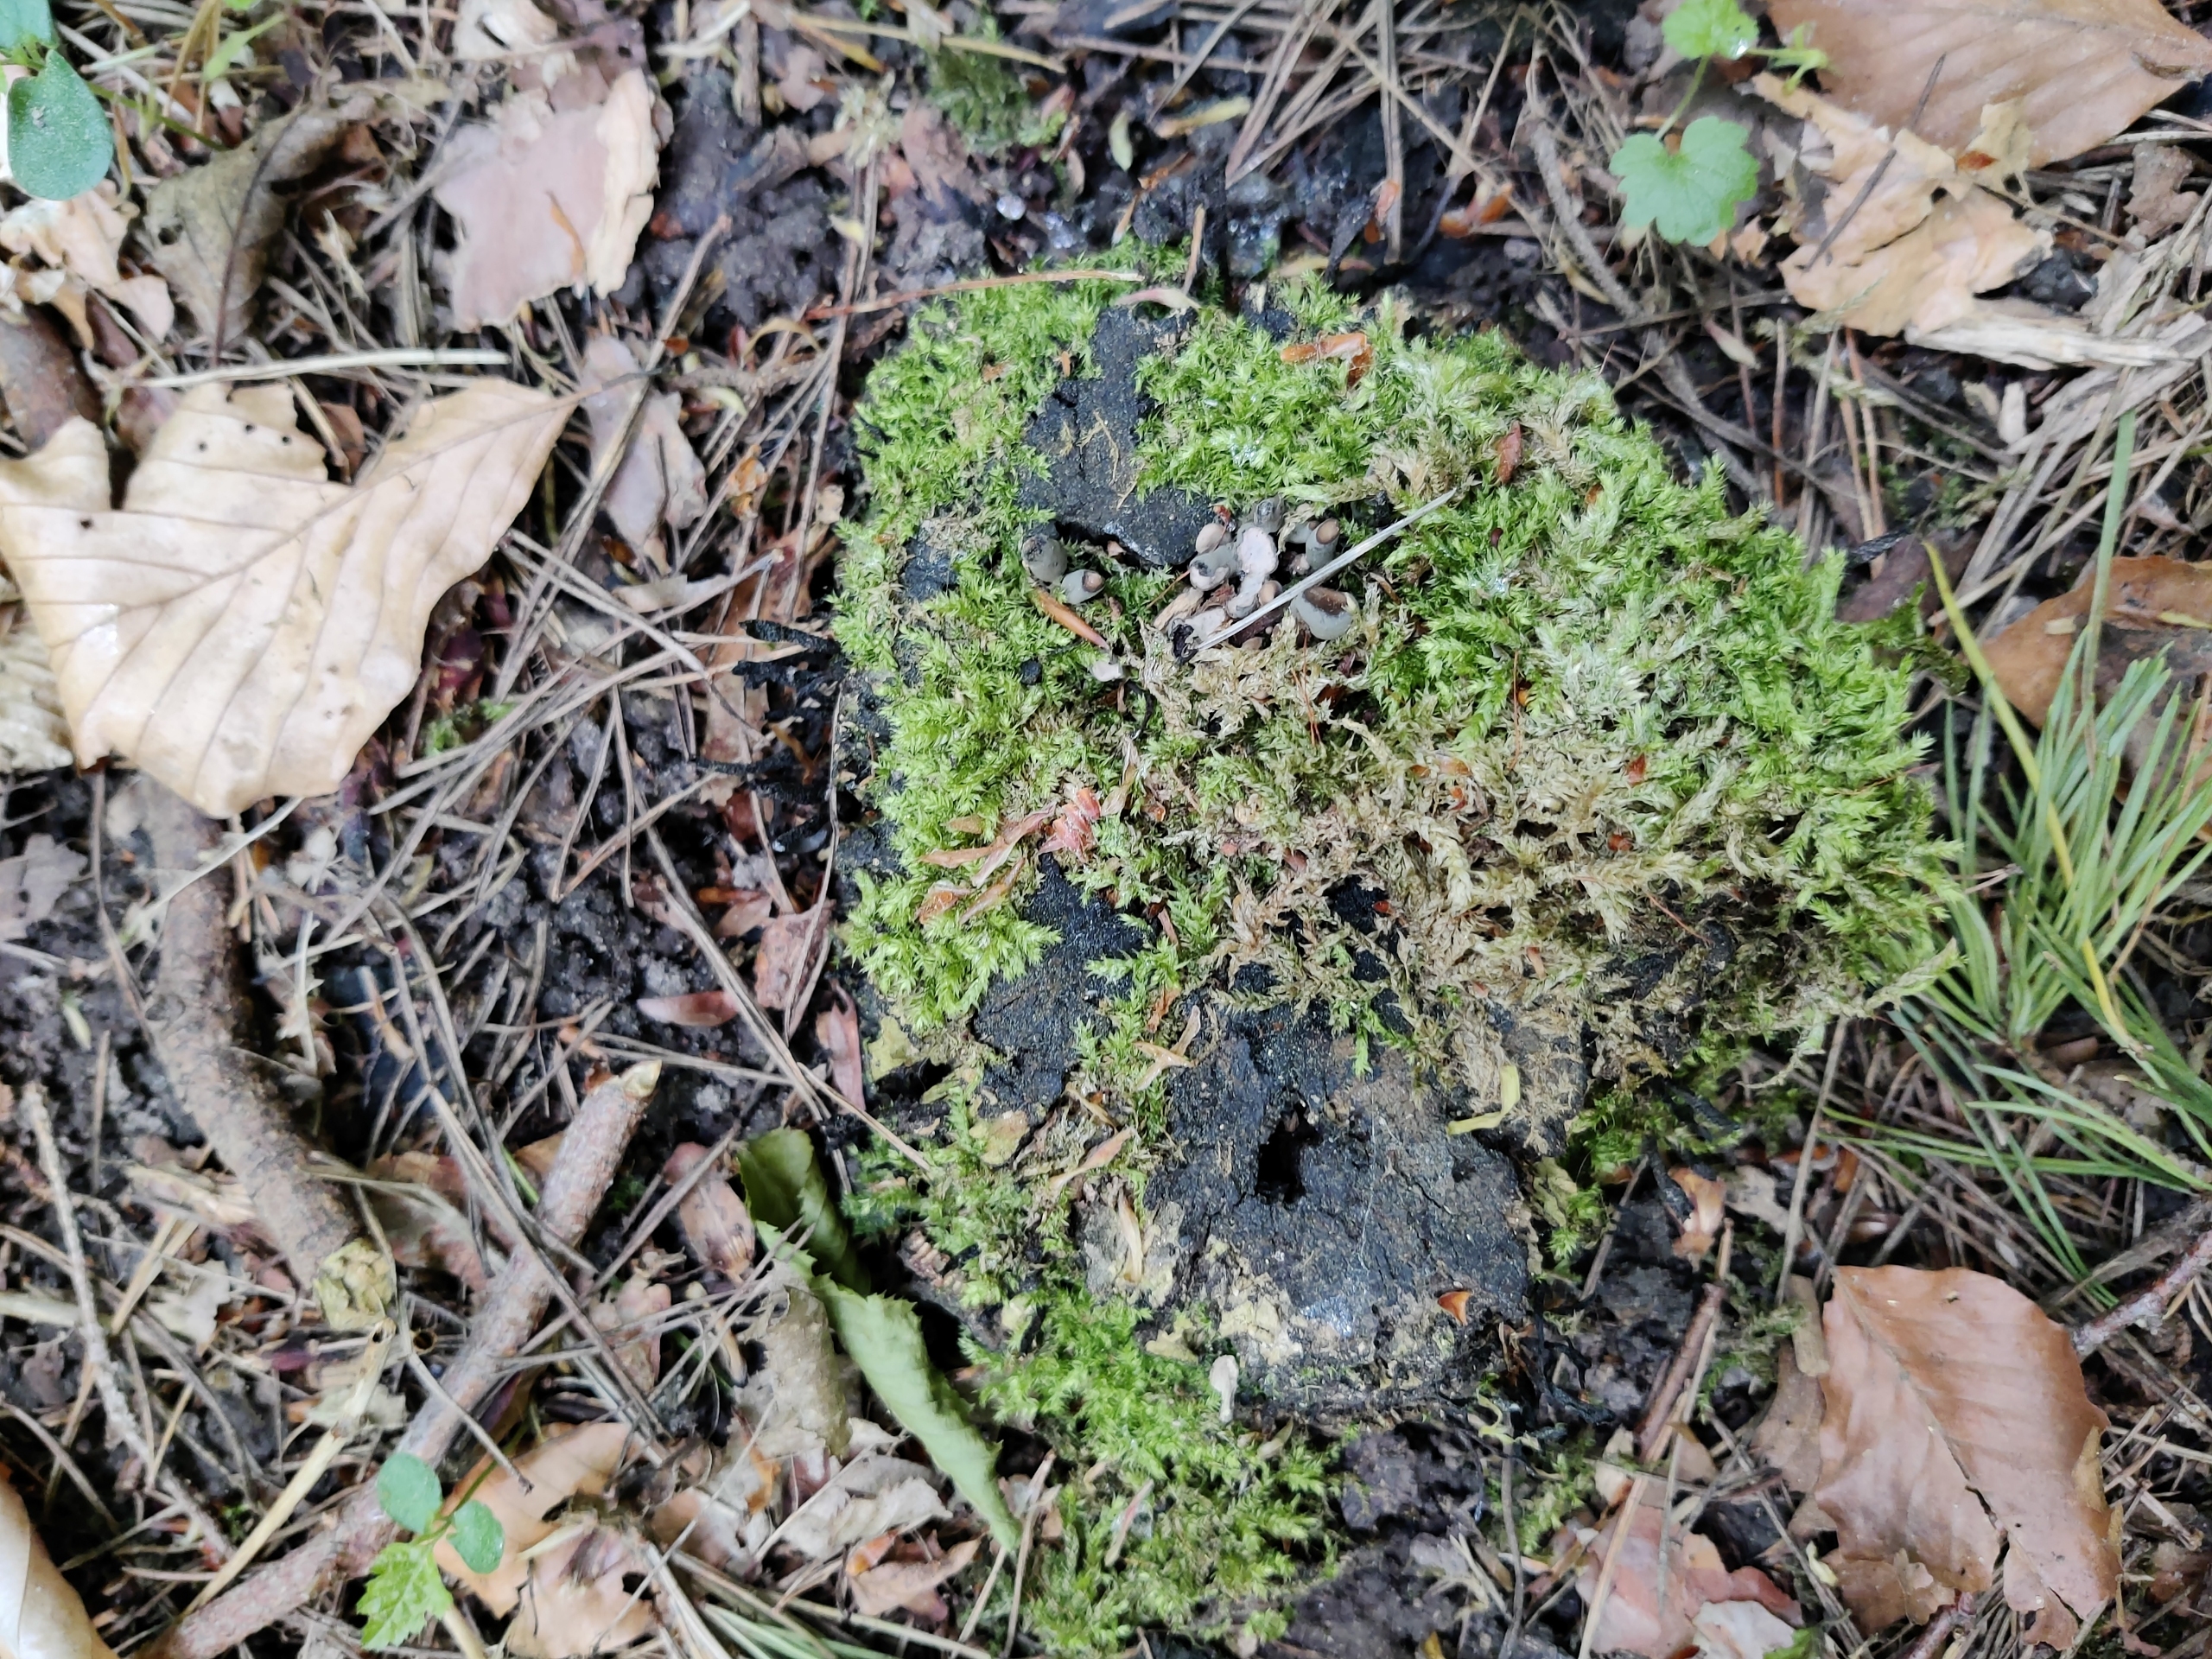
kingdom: Plantae
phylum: Bryophyta
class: Bryopsida
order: Hypnales
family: Brachytheciaceae
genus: Brachythecium
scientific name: Brachythecium rutabulum
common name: Almindelig kortkapsel
